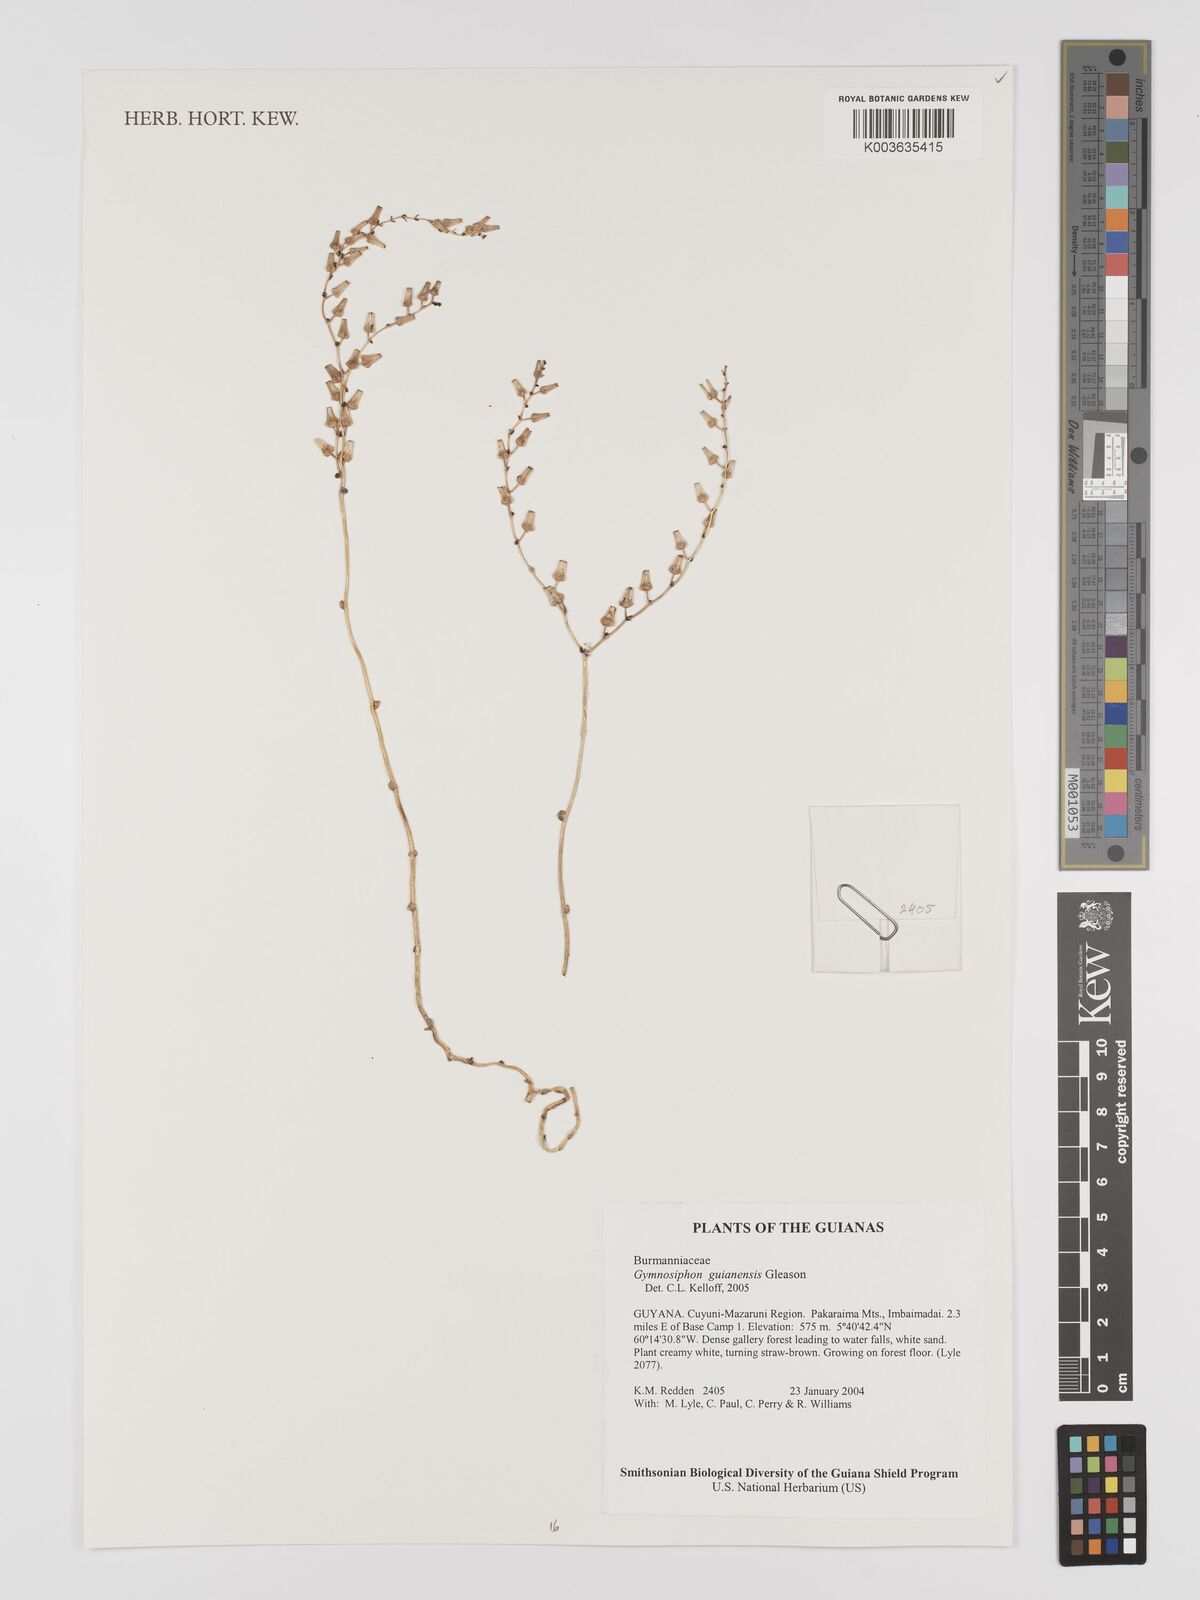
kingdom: Plantae
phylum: Tracheophyta
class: Liliopsida
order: Dioscoreales
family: Burmanniaceae
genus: Gymnosiphon
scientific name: Gymnosiphon guianensis
